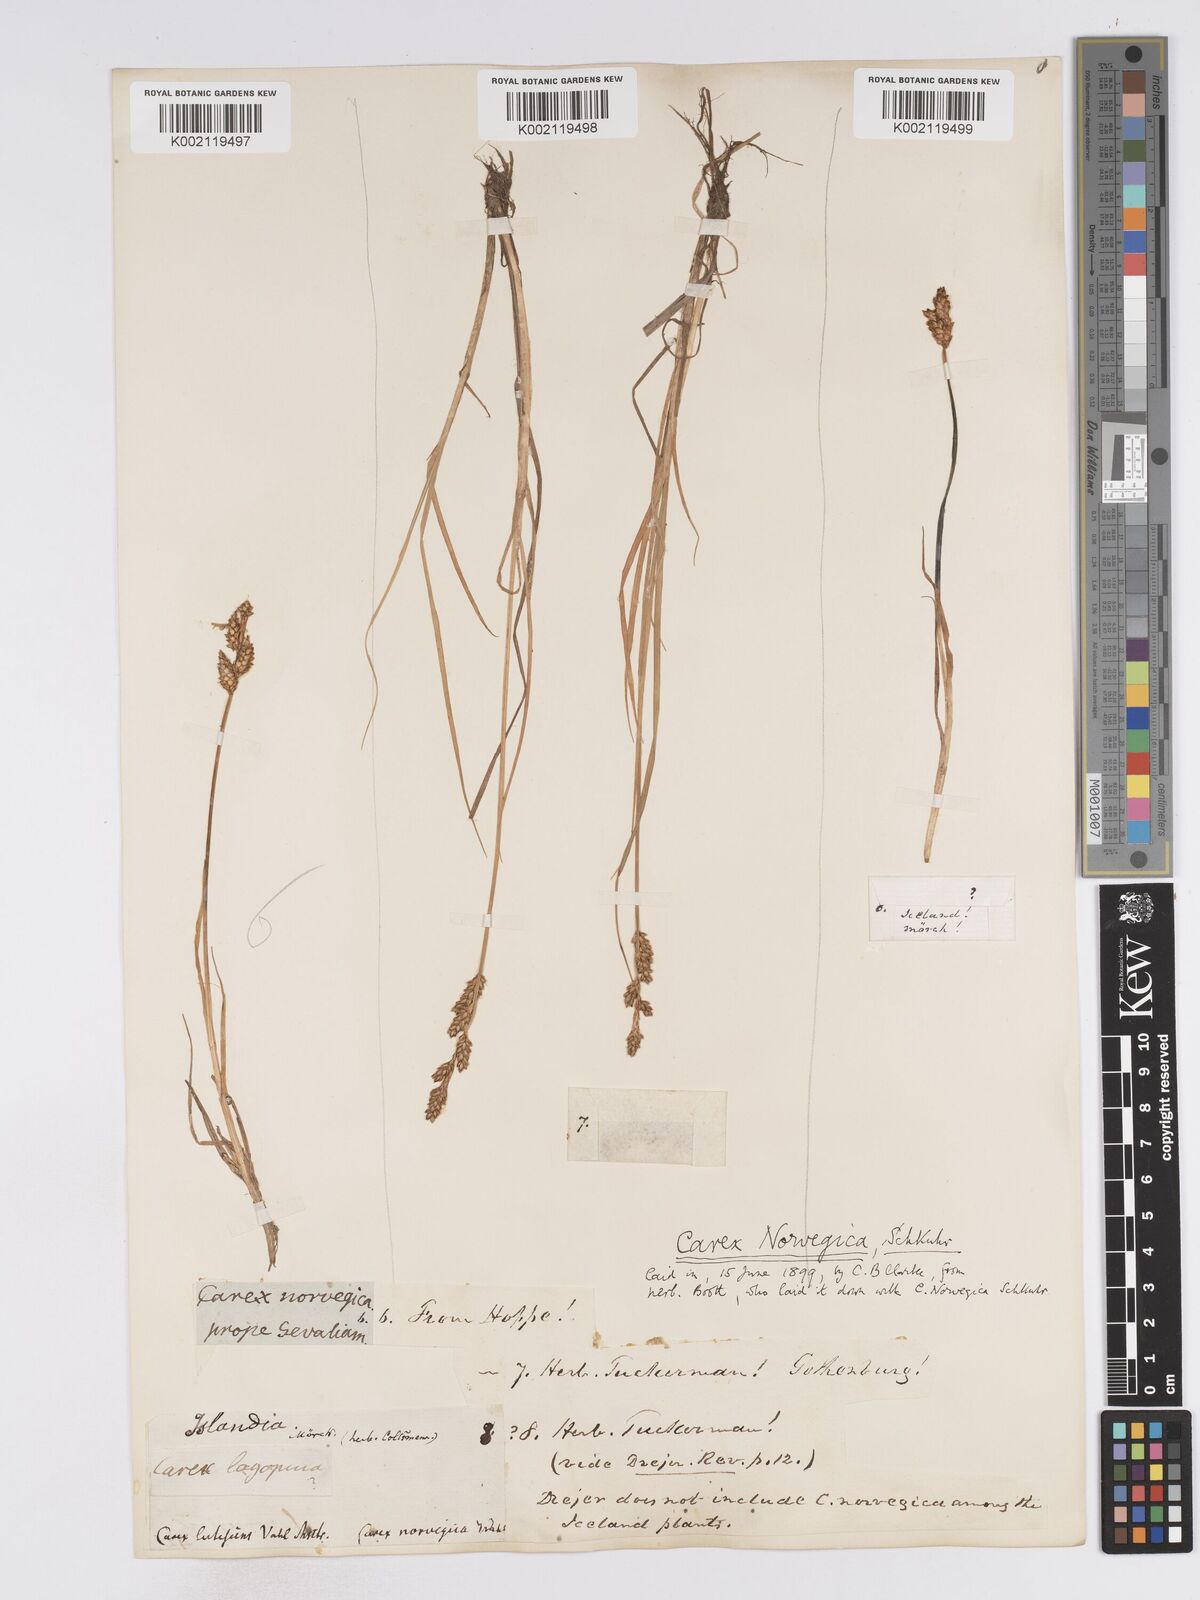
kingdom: Plantae
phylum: Tracheophyta
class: Liliopsida
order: Poales
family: Cyperaceae
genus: Carex
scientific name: Carex mackenziei
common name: Mackenzie's sedge
